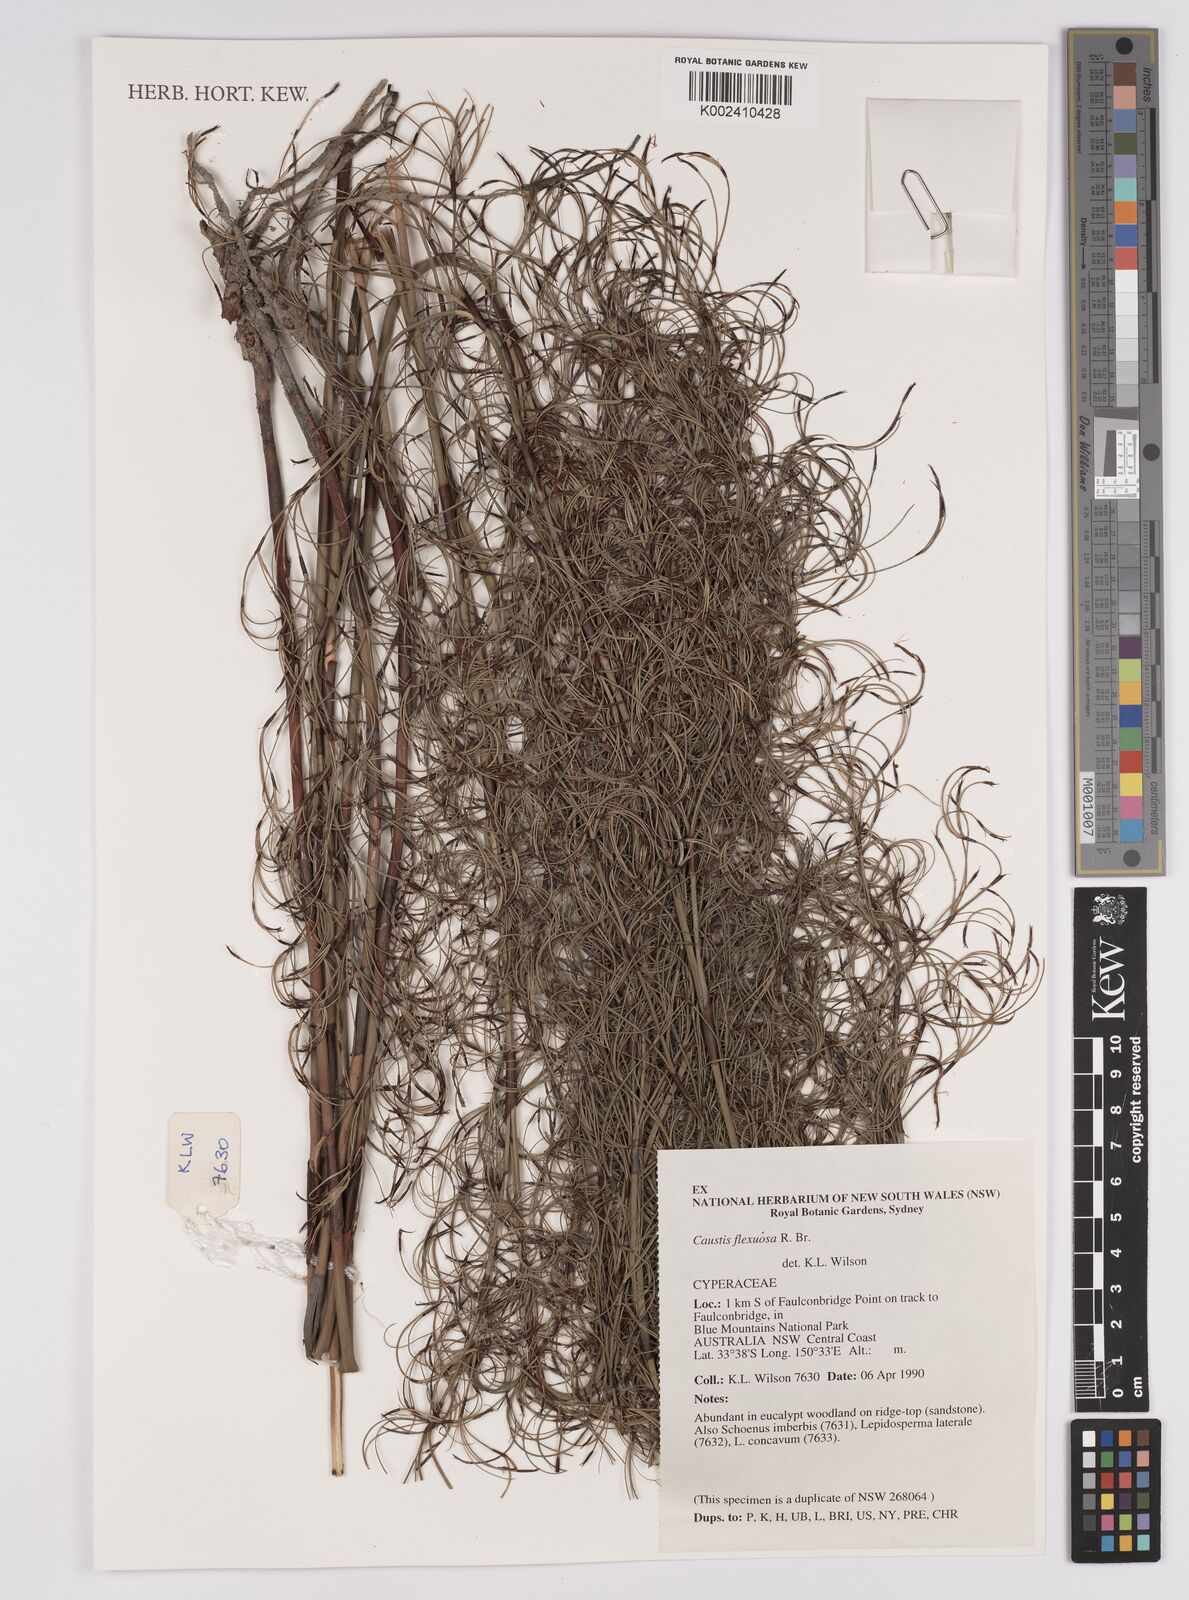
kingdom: Plantae
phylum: Tracheophyta
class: Liliopsida
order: Poales
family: Cyperaceae
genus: Caustis
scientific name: Caustis flexuosa
